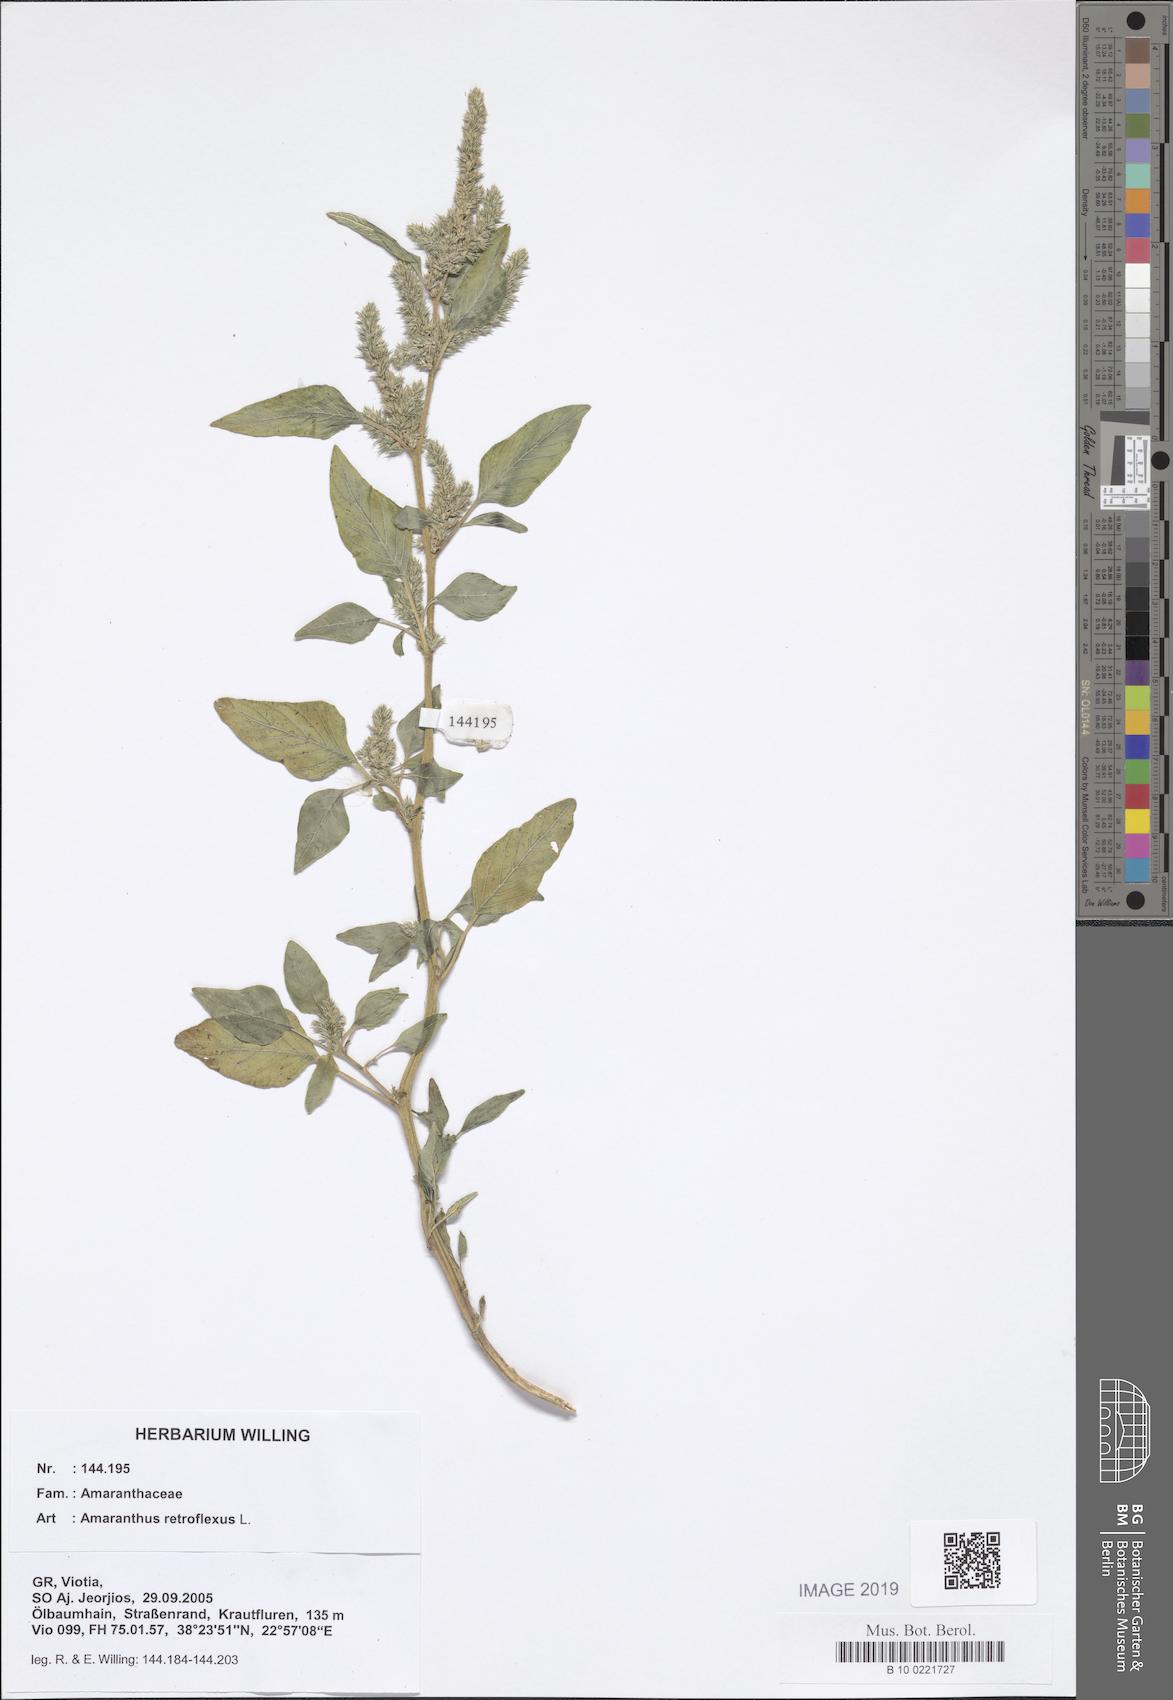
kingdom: Plantae
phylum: Tracheophyta
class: Magnoliopsida
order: Caryophyllales
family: Amaranthaceae
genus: Amaranthus
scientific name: Amaranthus retroflexus
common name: Redroot amaranth
